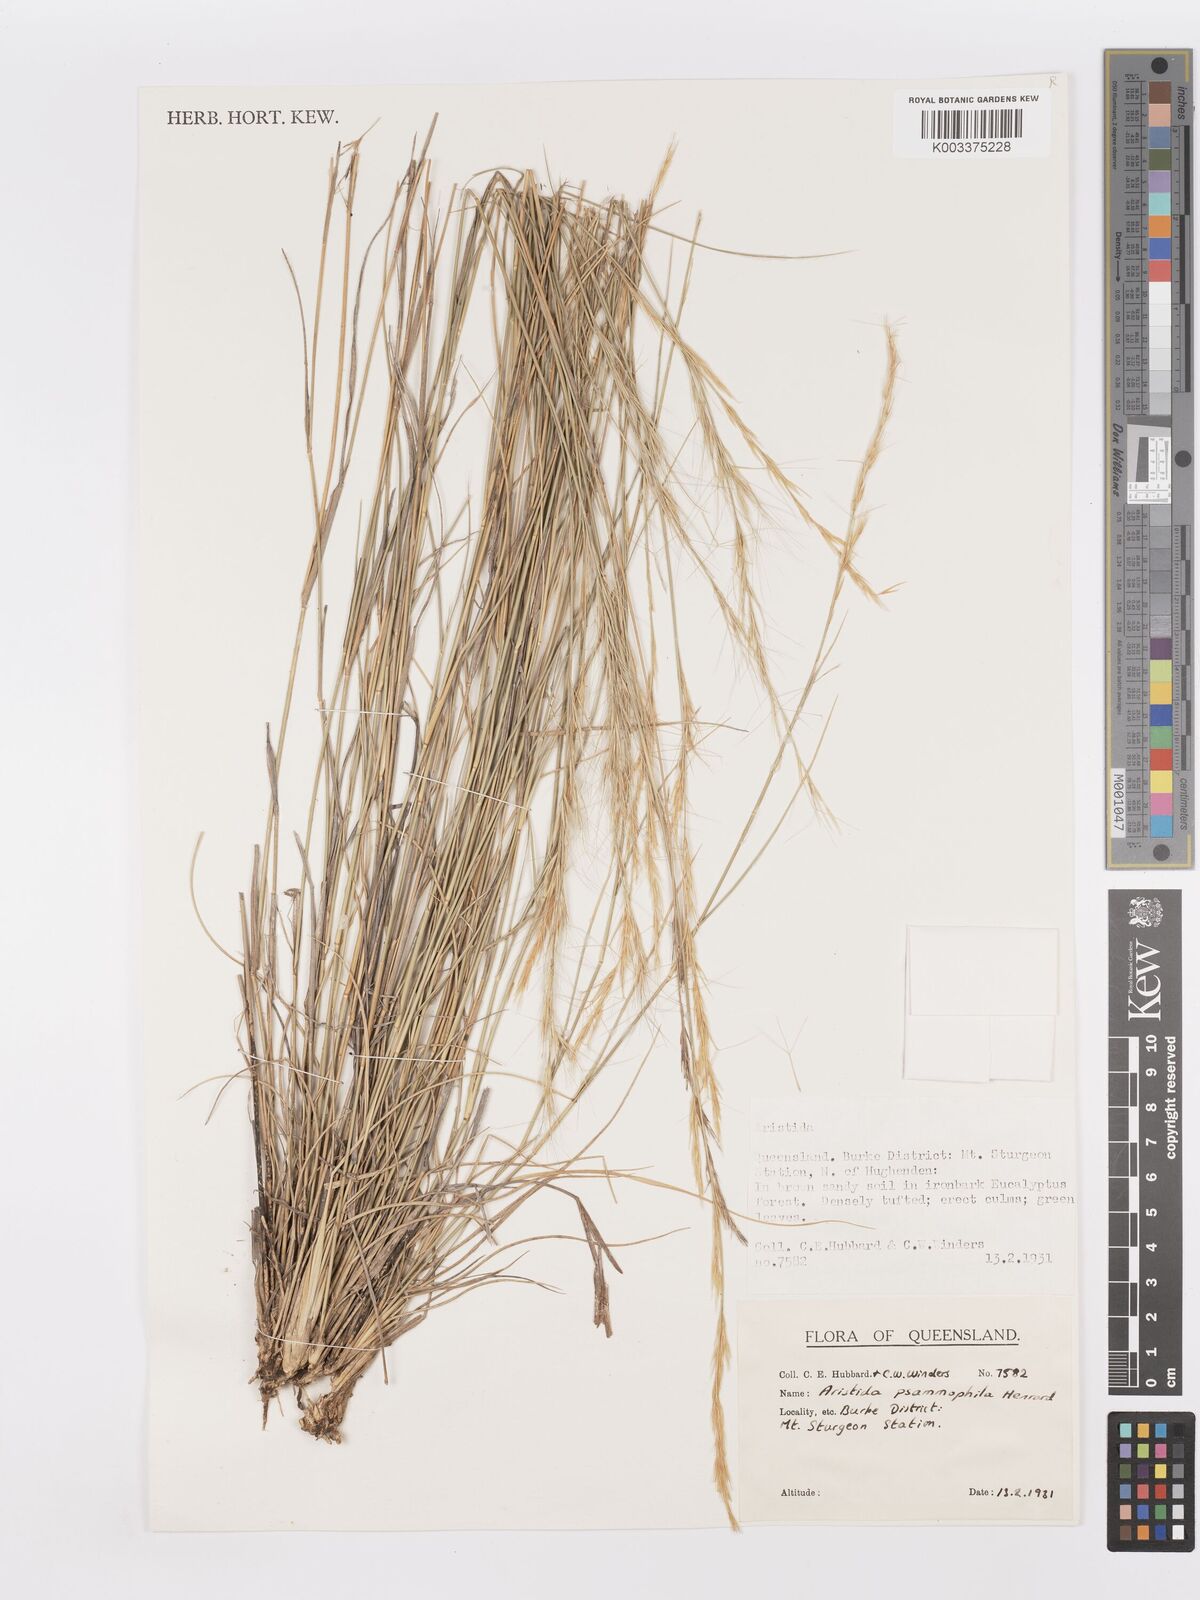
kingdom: Plantae
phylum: Tracheophyta
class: Liliopsida
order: Poales
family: Poaceae
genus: Aristida
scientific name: Aristida psammophila
